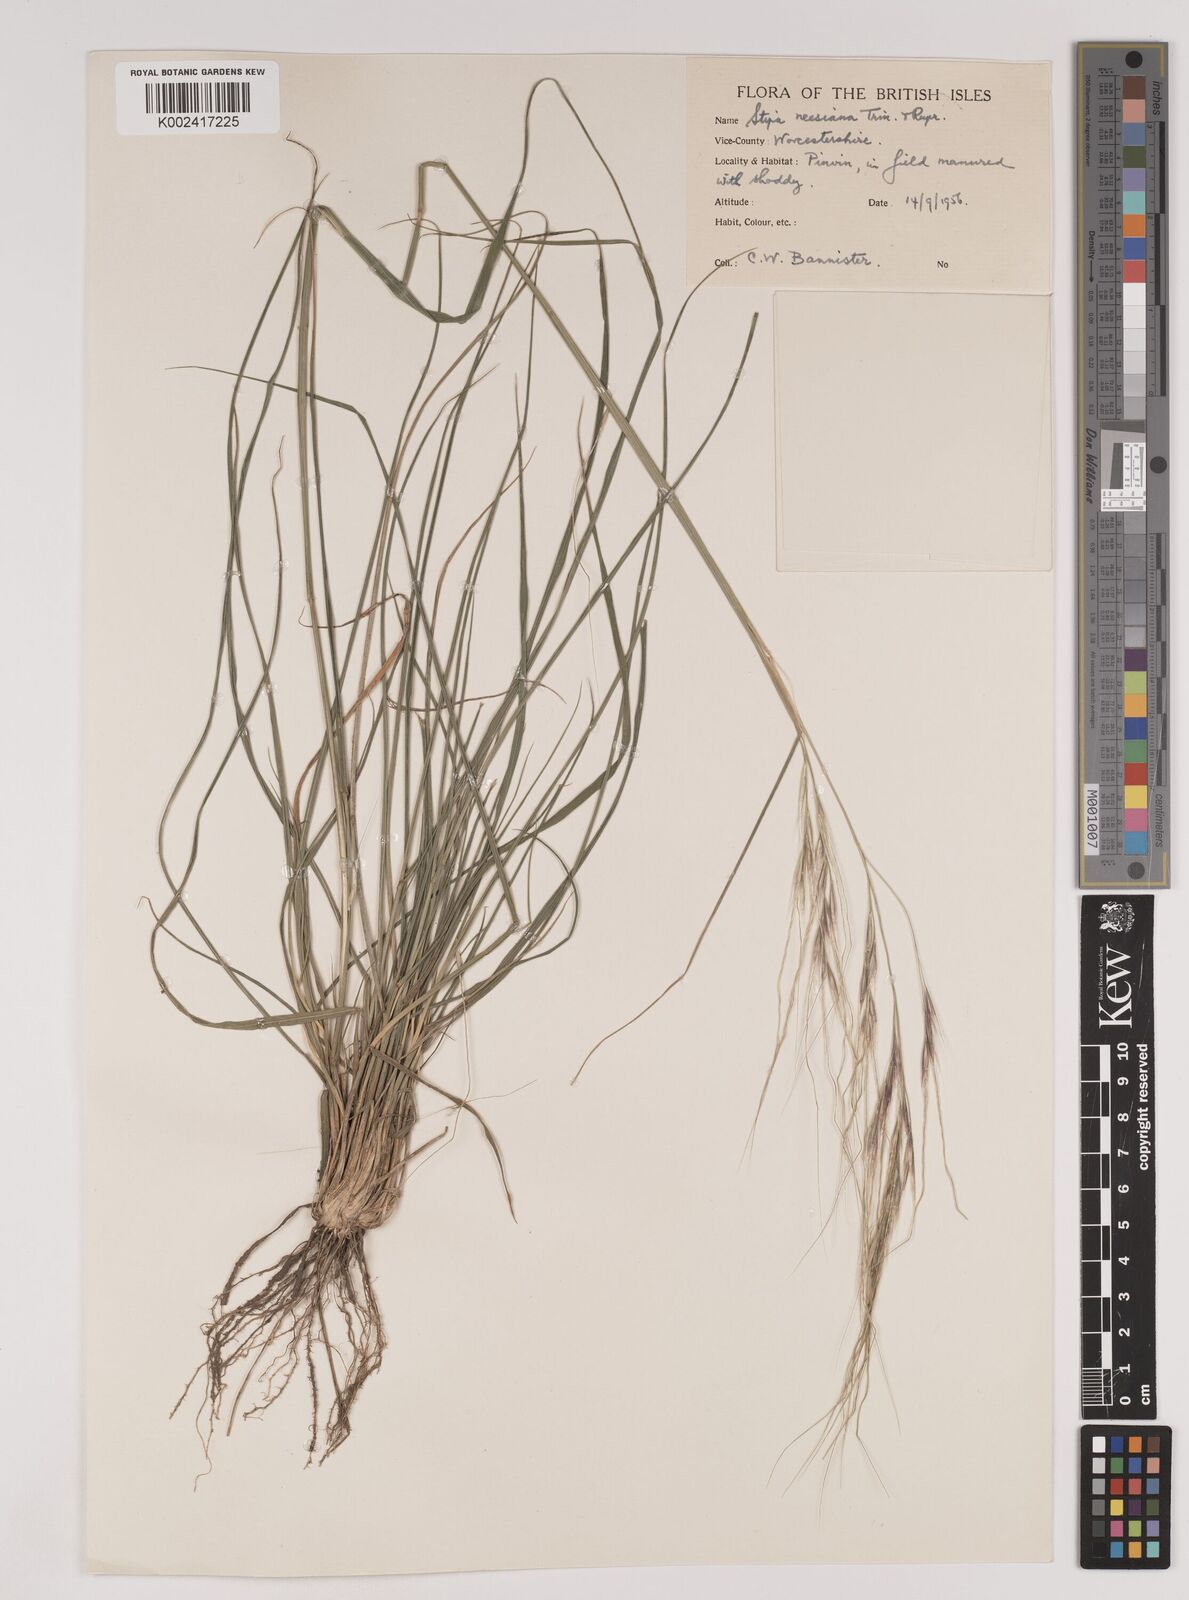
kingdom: Plantae
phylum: Tracheophyta
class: Liliopsida
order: Poales
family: Poaceae
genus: Nassella
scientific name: Nassella neesiana
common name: American needle-grass
